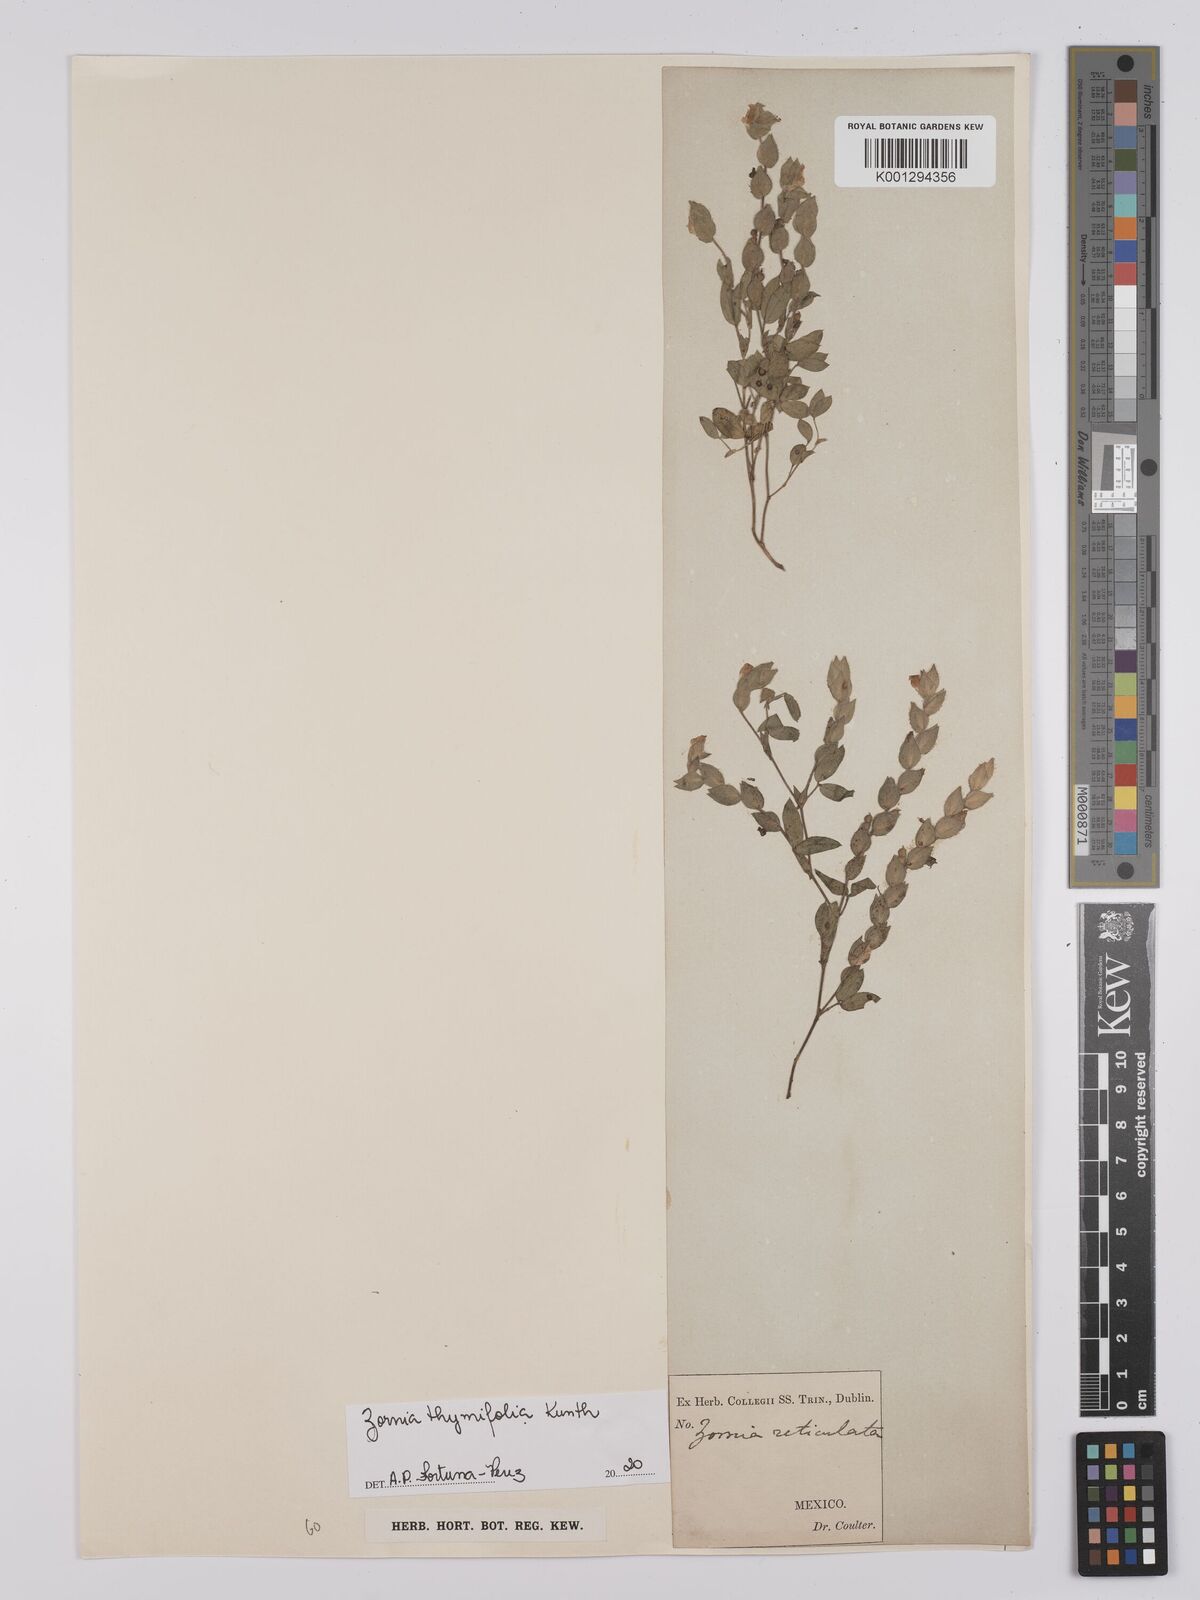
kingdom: Plantae
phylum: Tracheophyta
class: Magnoliopsida
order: Fabales
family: Fabaceae
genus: Zornia
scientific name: Zornia reticulata
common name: Reticulate viperina
